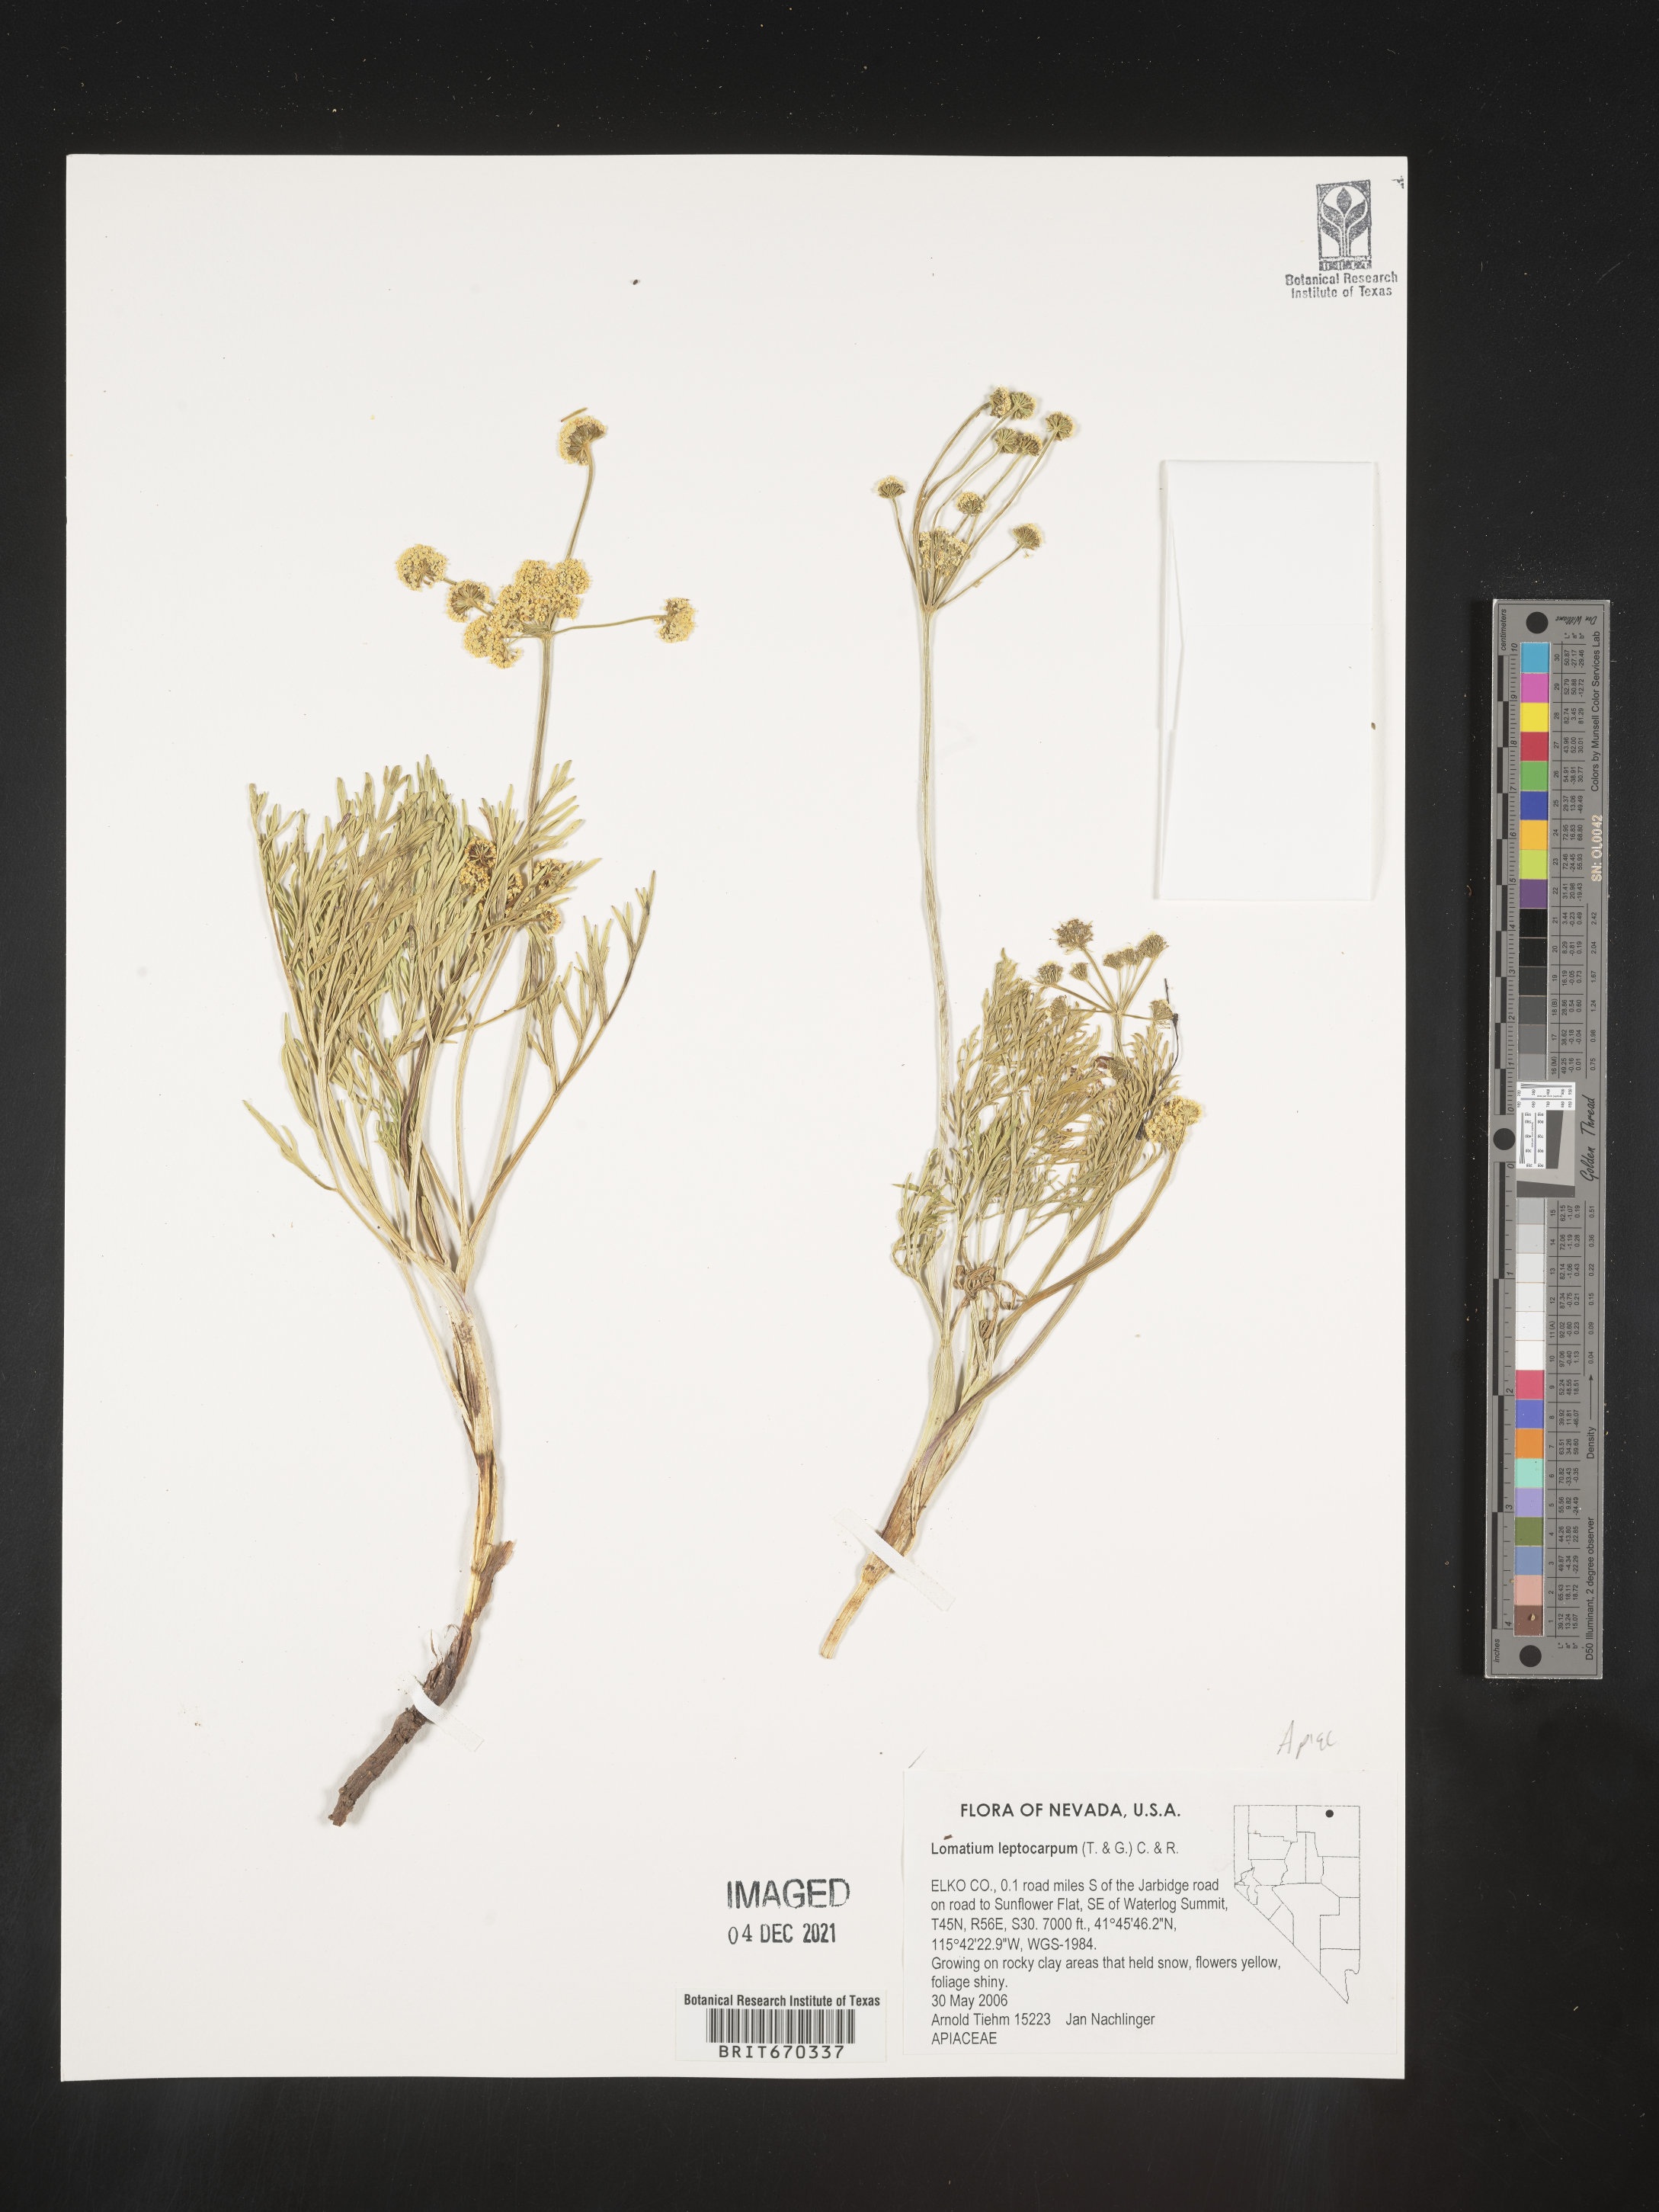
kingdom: Plantae
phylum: Tracheophyta
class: Magnoliopsida
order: Apiales
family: Apiaceae
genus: Lomatium
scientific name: Lomatium bicolor
